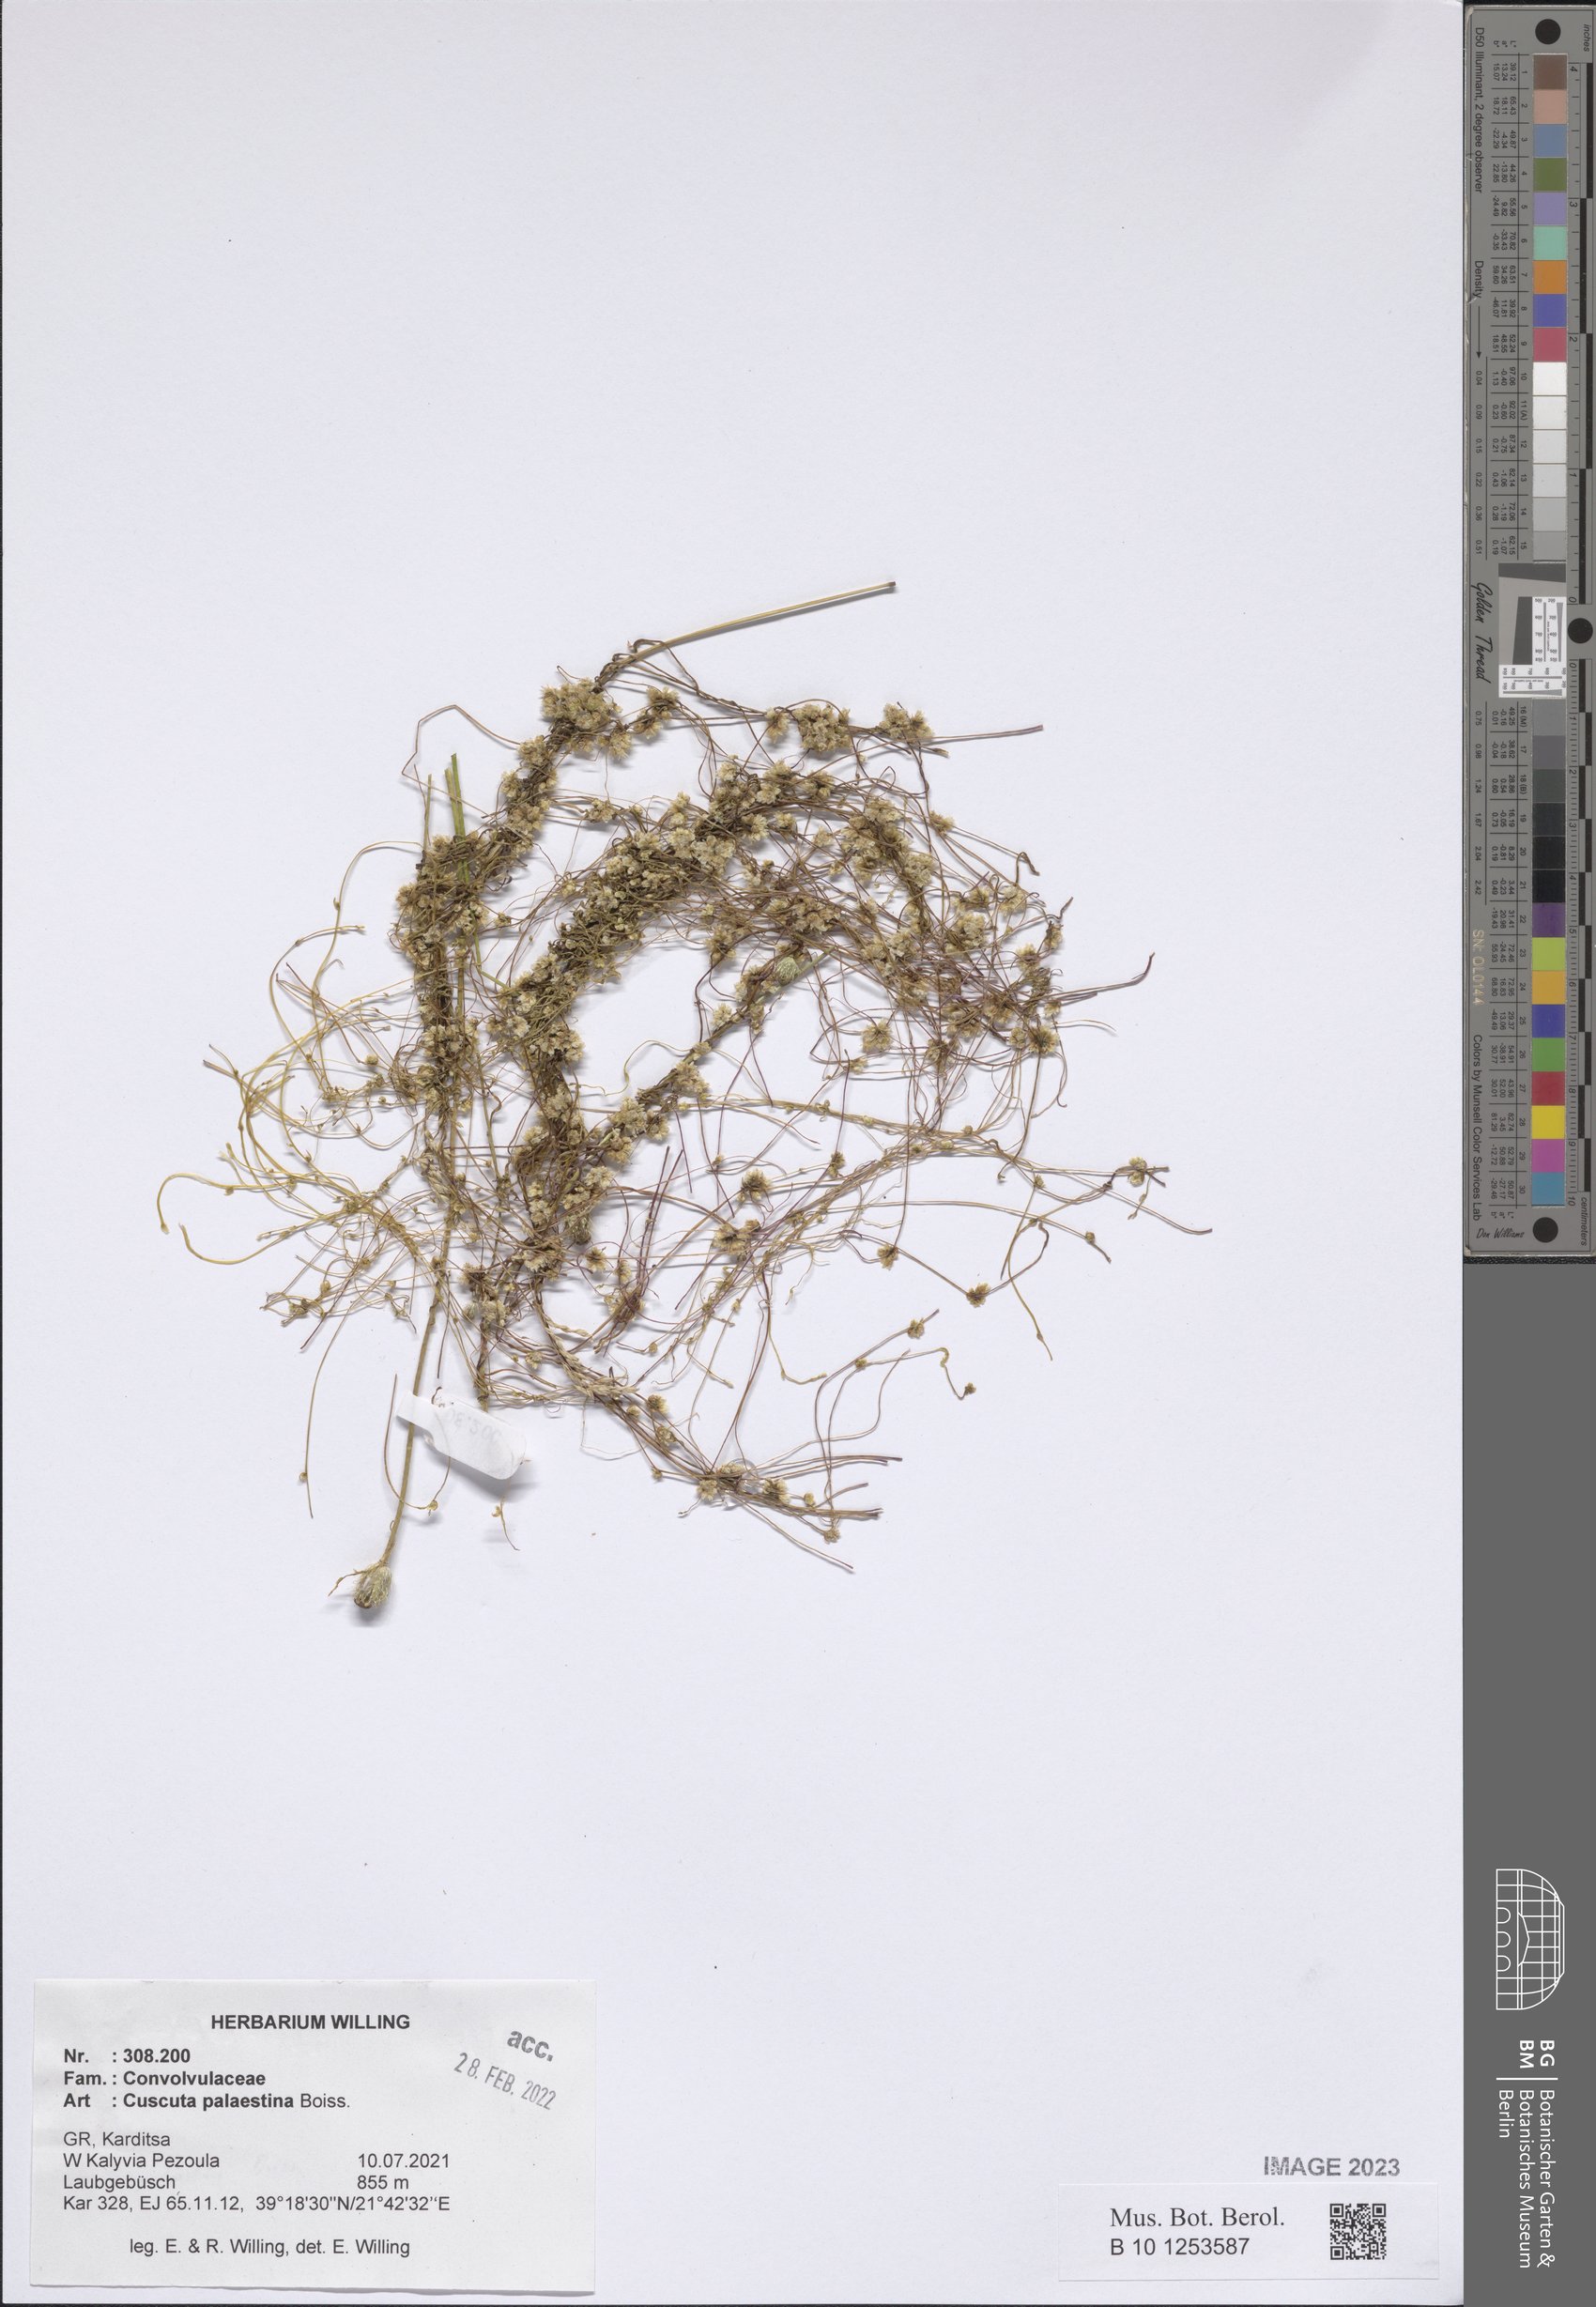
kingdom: Plantae
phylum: Tracheophyta
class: Magnoliopsida
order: Solanales
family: Convolvulaceae
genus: Cuscuta
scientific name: Cuscuta palaestina
